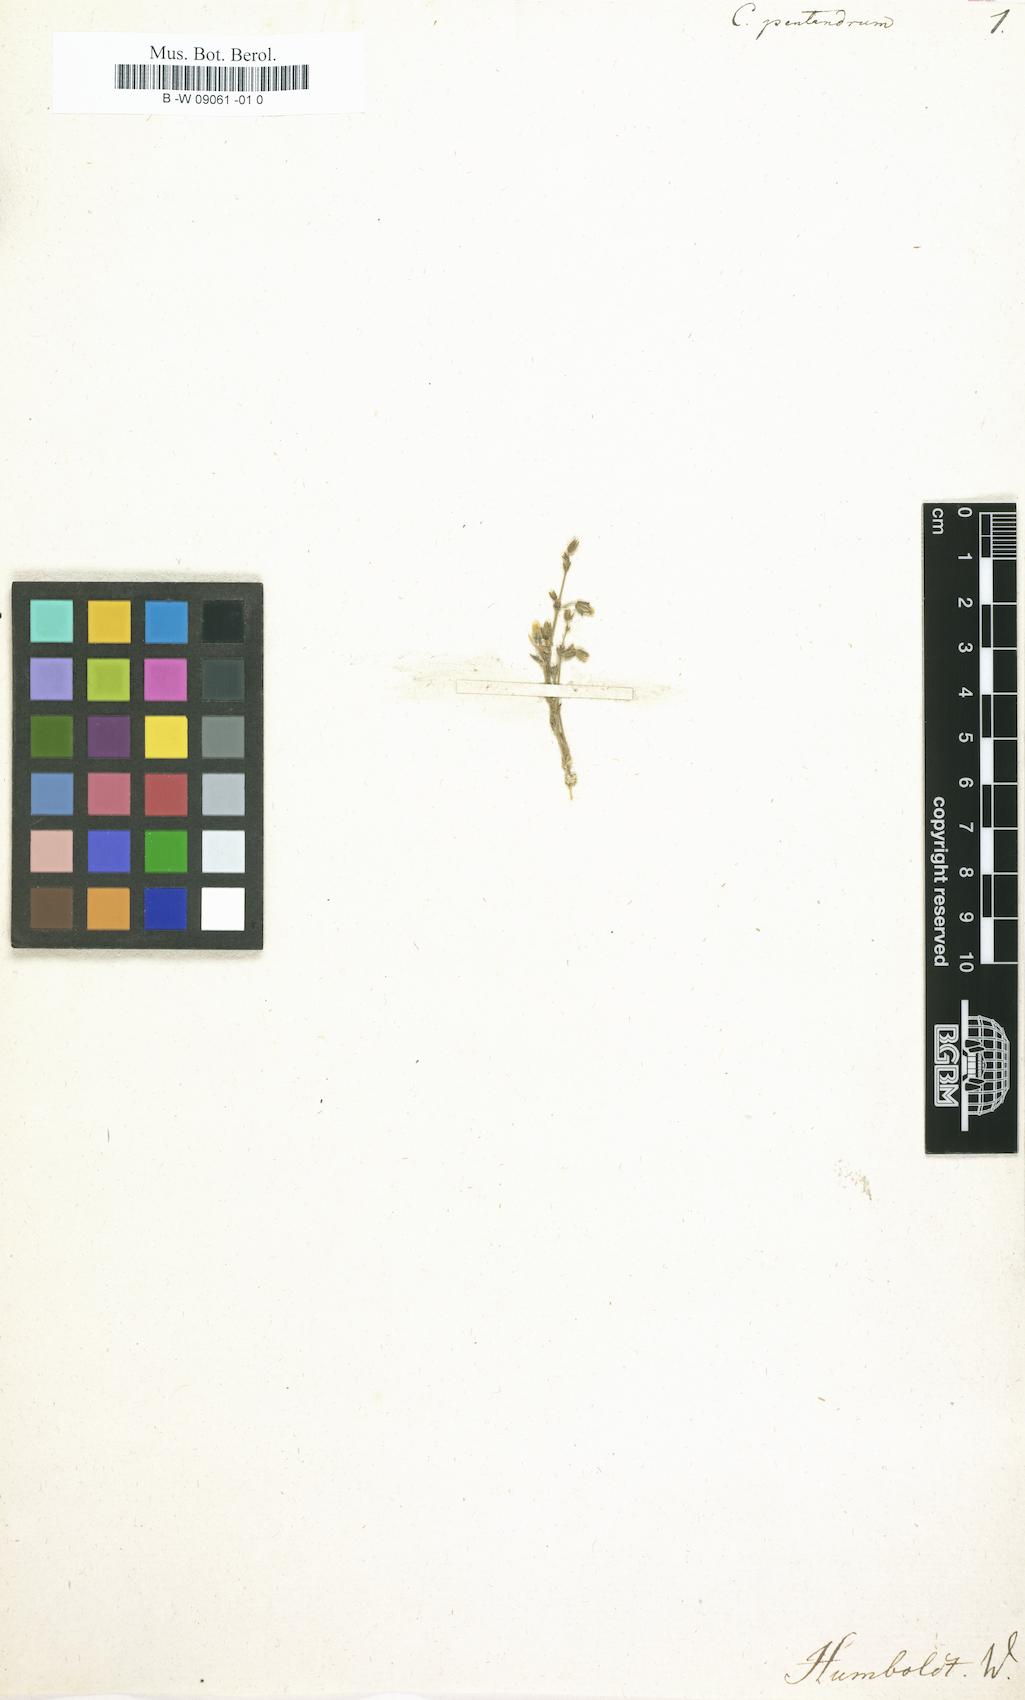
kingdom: Plantae
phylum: Tracheophyta
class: Magnoliopsida
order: Caryophyllales
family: Caryophyllaceae
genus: Cerastium
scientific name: Cerastium pentandrum
